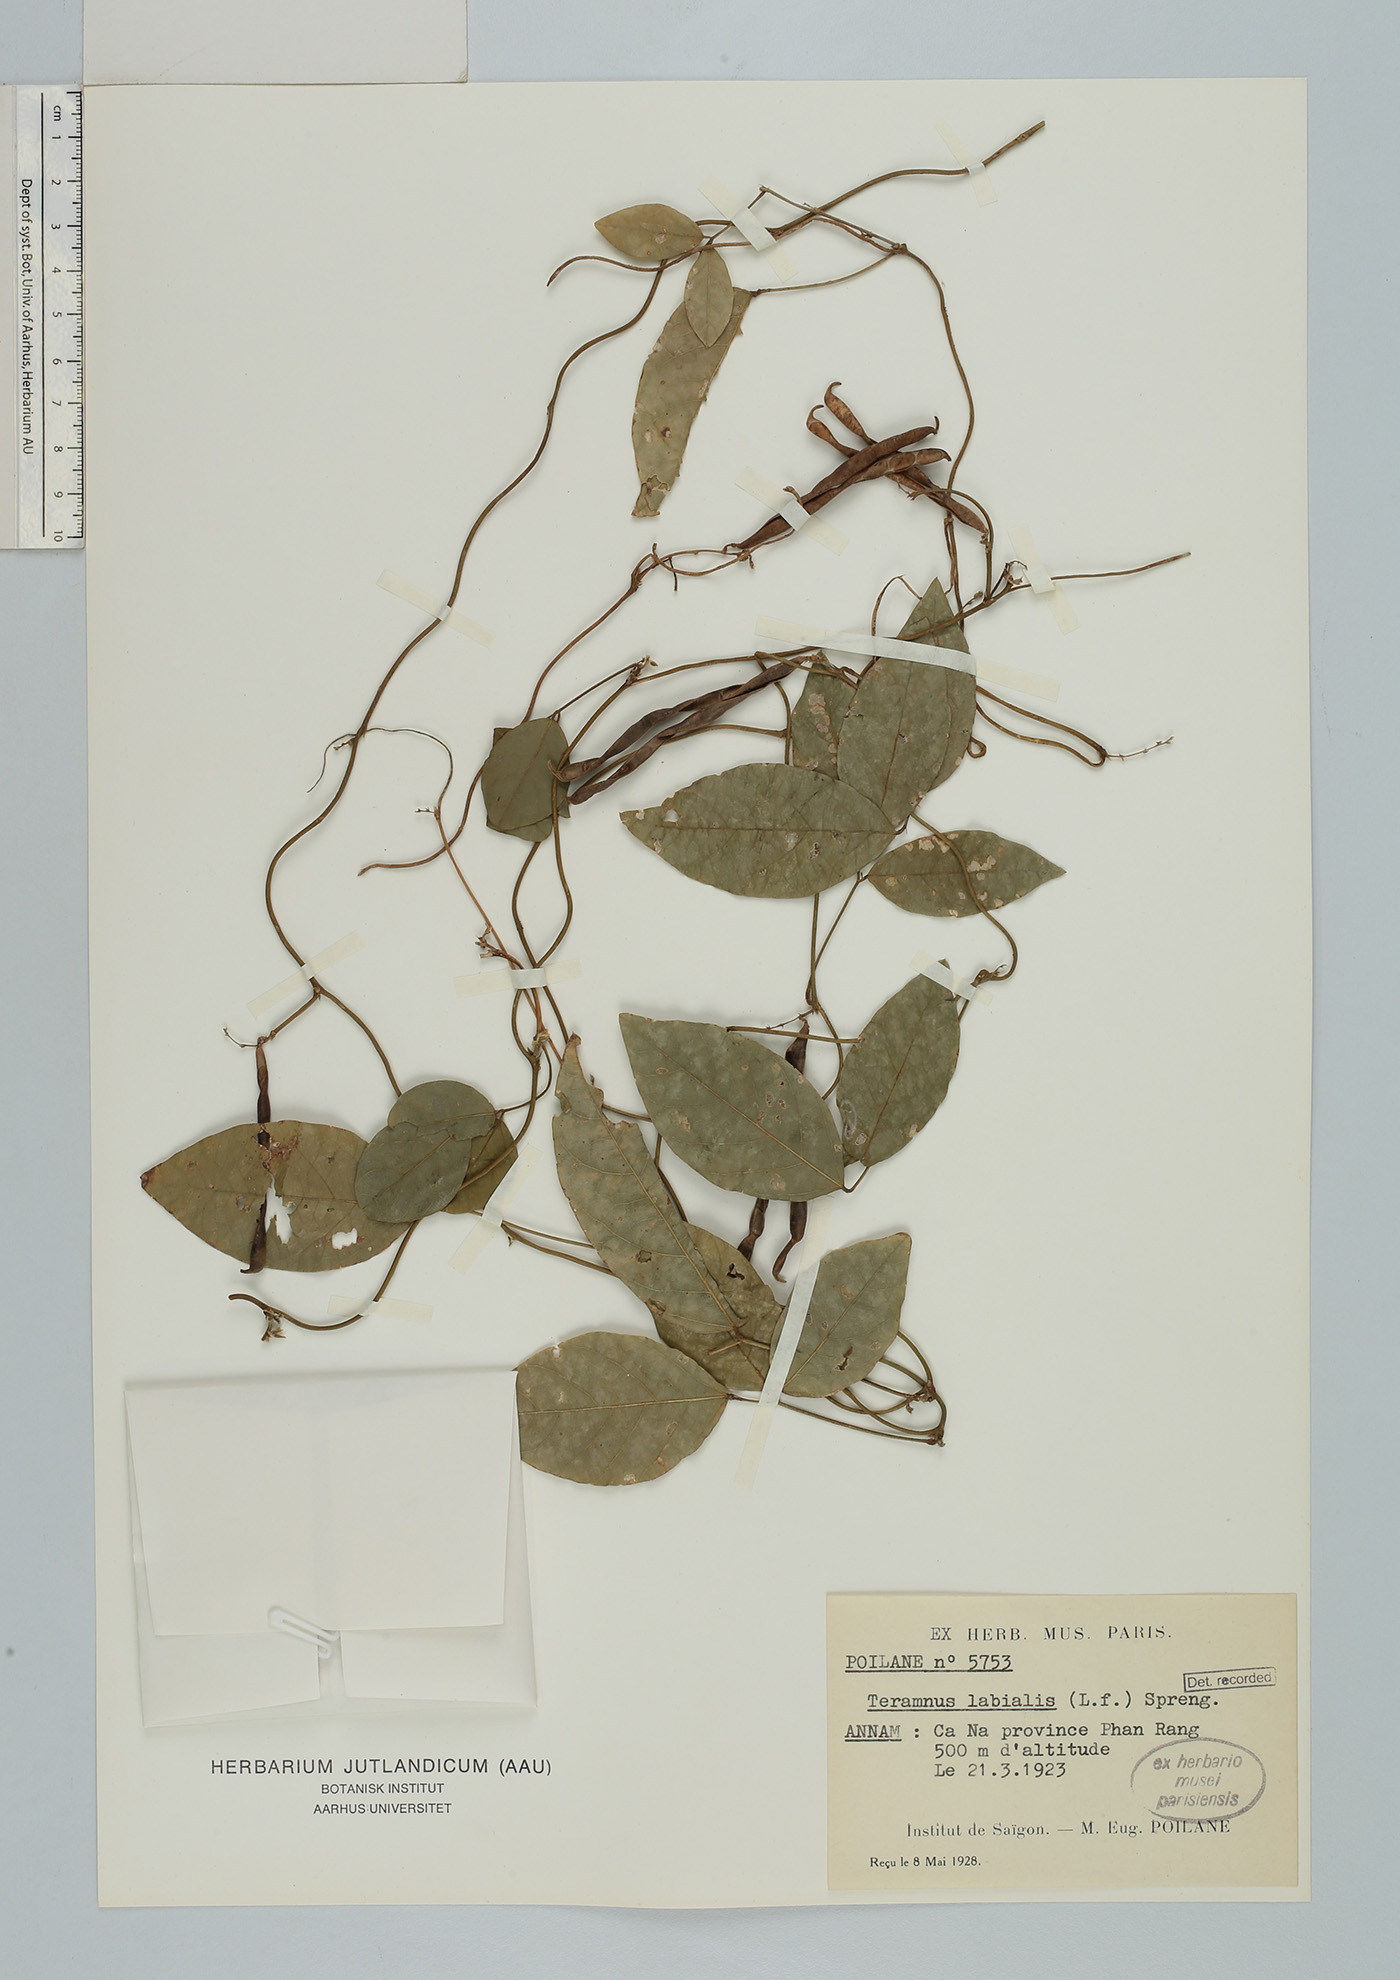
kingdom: Plantae
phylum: Tracheophyta
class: Magnoliopsida
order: Fabales
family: Fabaceae
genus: Teramnus
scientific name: Teramnus flexilis
